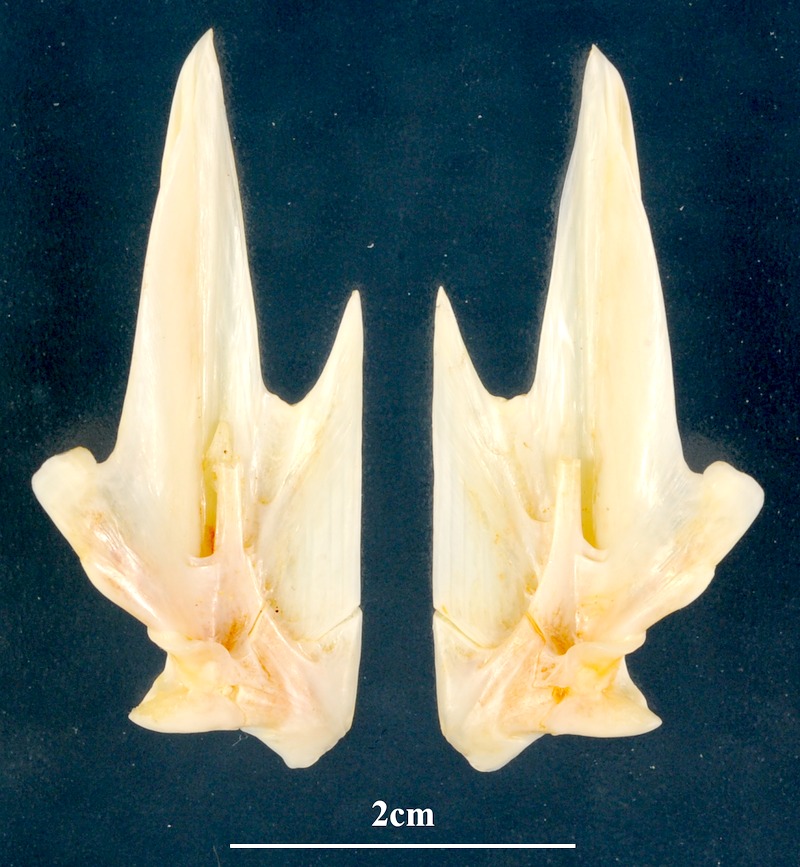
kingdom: Animalia
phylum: Chordata
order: Perciformes
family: Serranidae
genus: Epinephelus
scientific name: Epinephelus fasciatus
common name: Blacktip grouper
